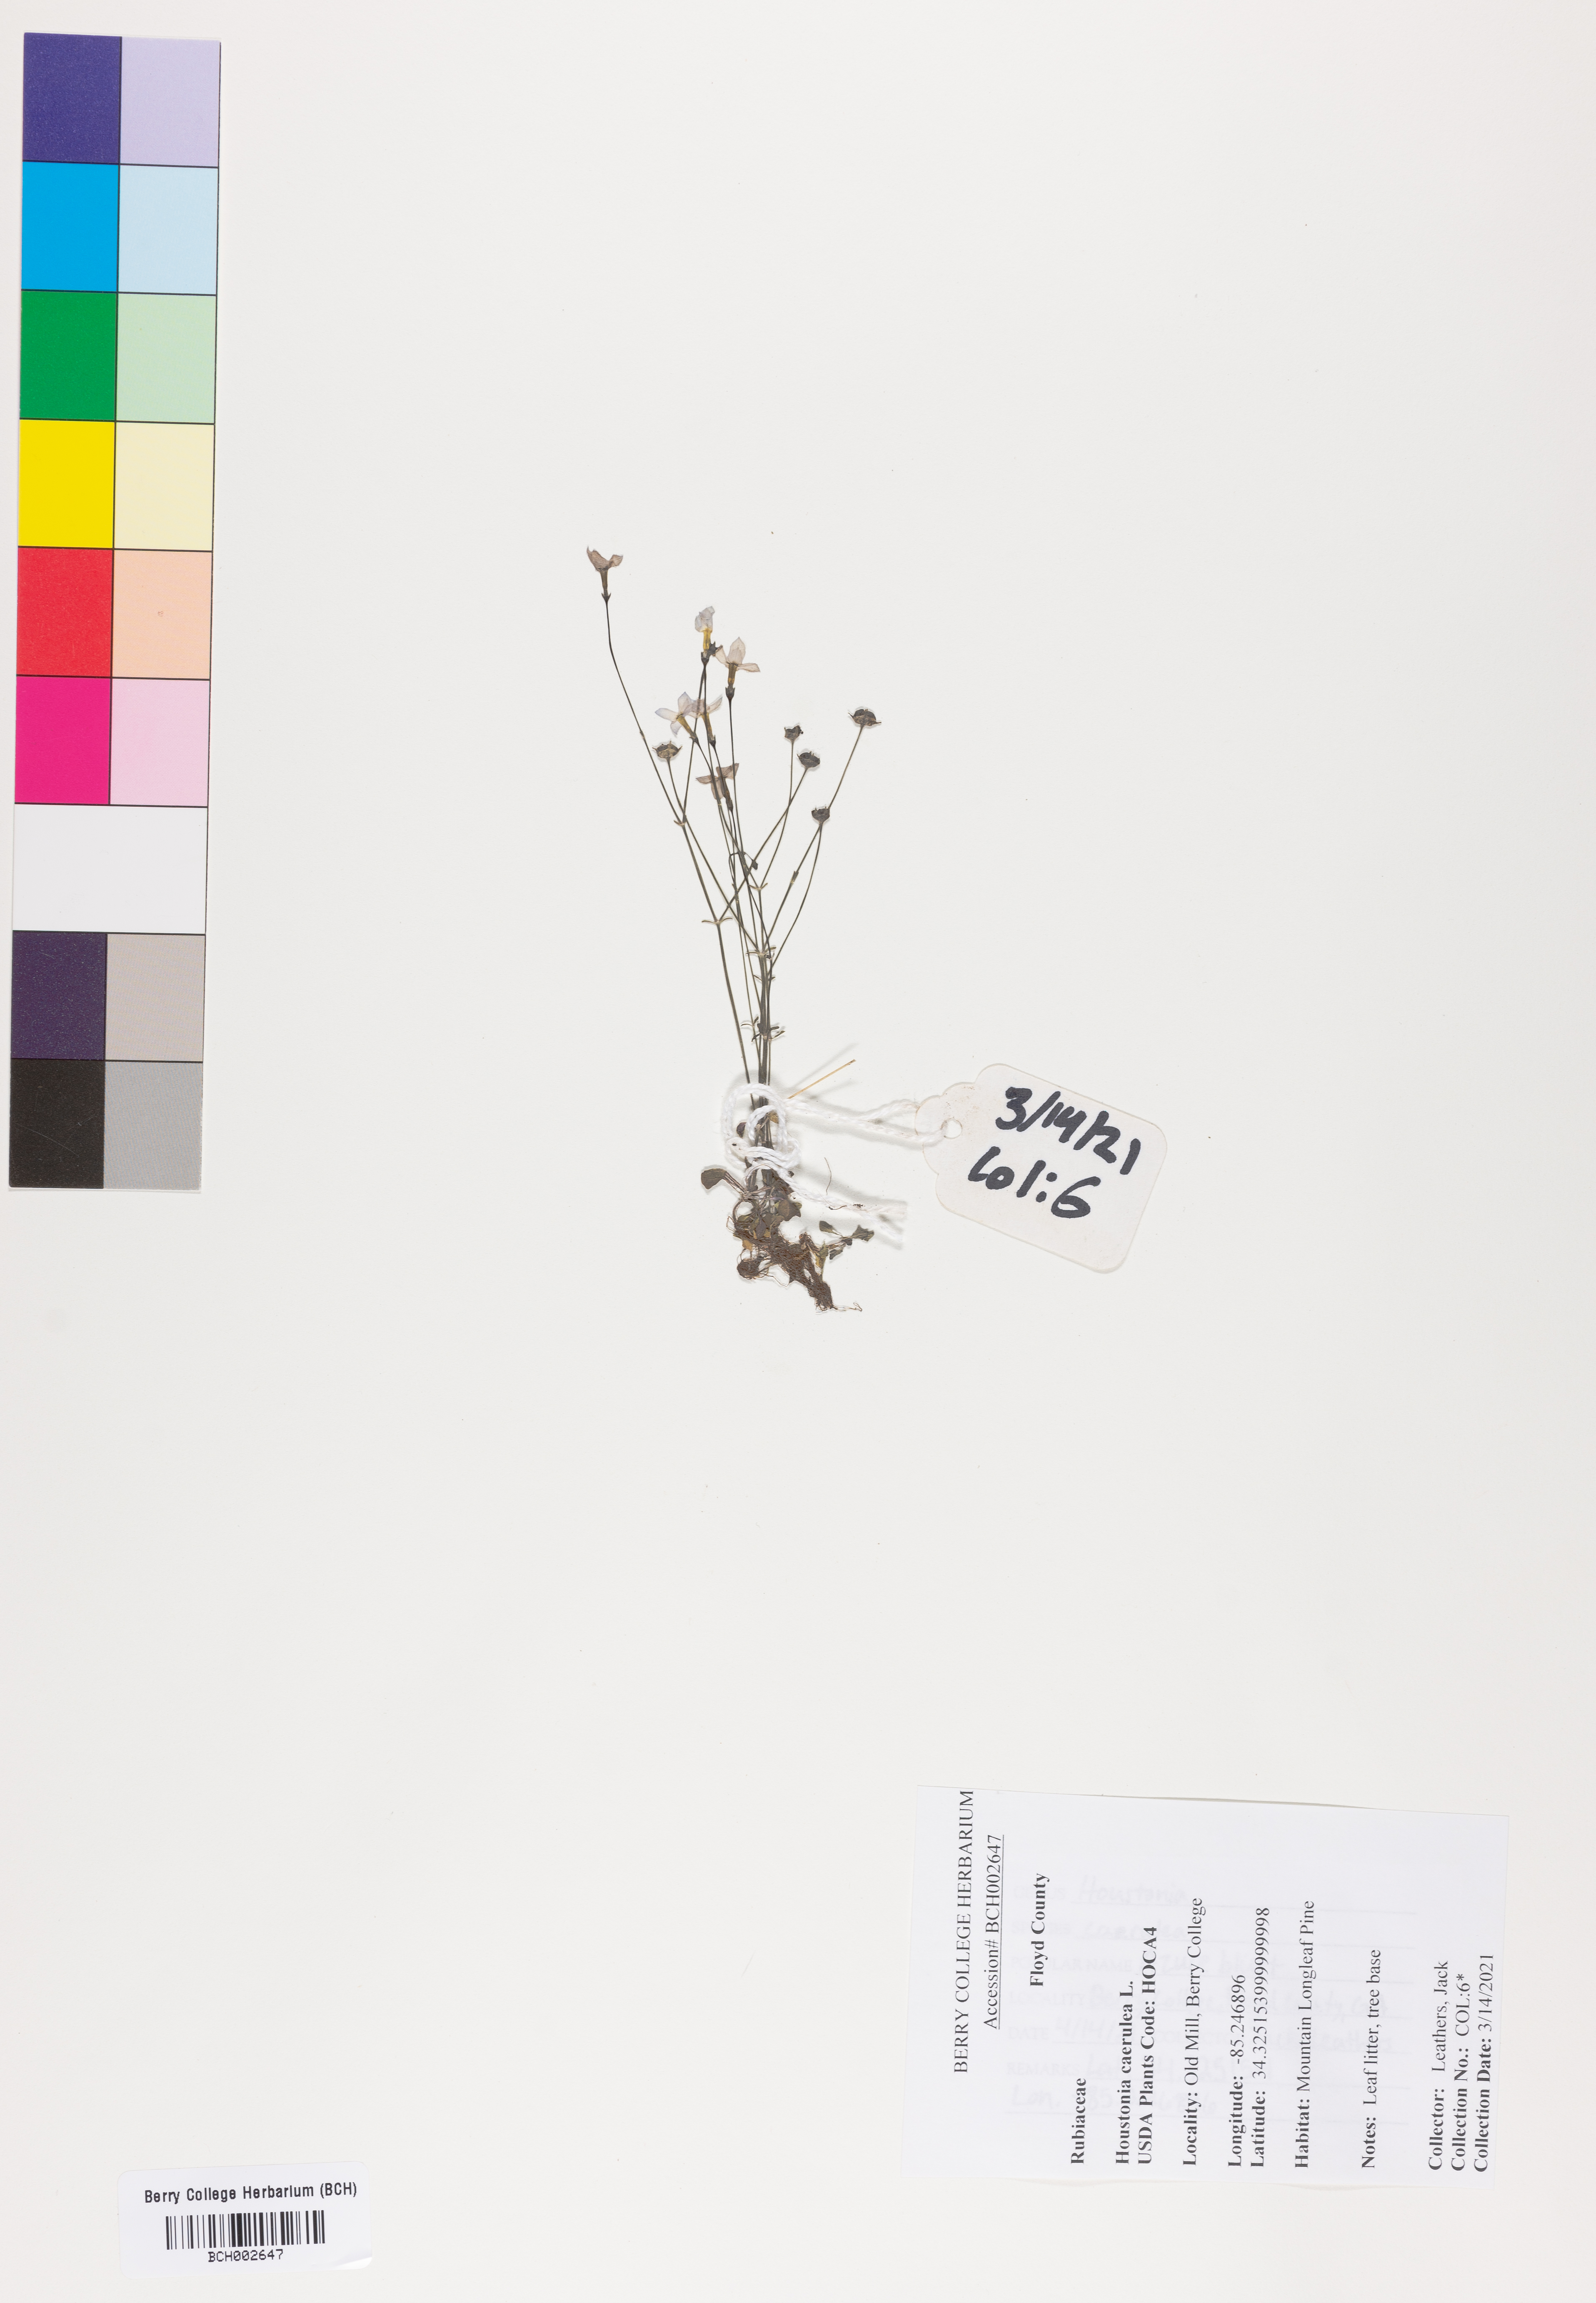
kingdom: Plantae
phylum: Tracheophyta
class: Magnoliopsida
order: Gentianales
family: Rubiaceae
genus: Houstonia
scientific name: Houstonia caerulea
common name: Bluets
